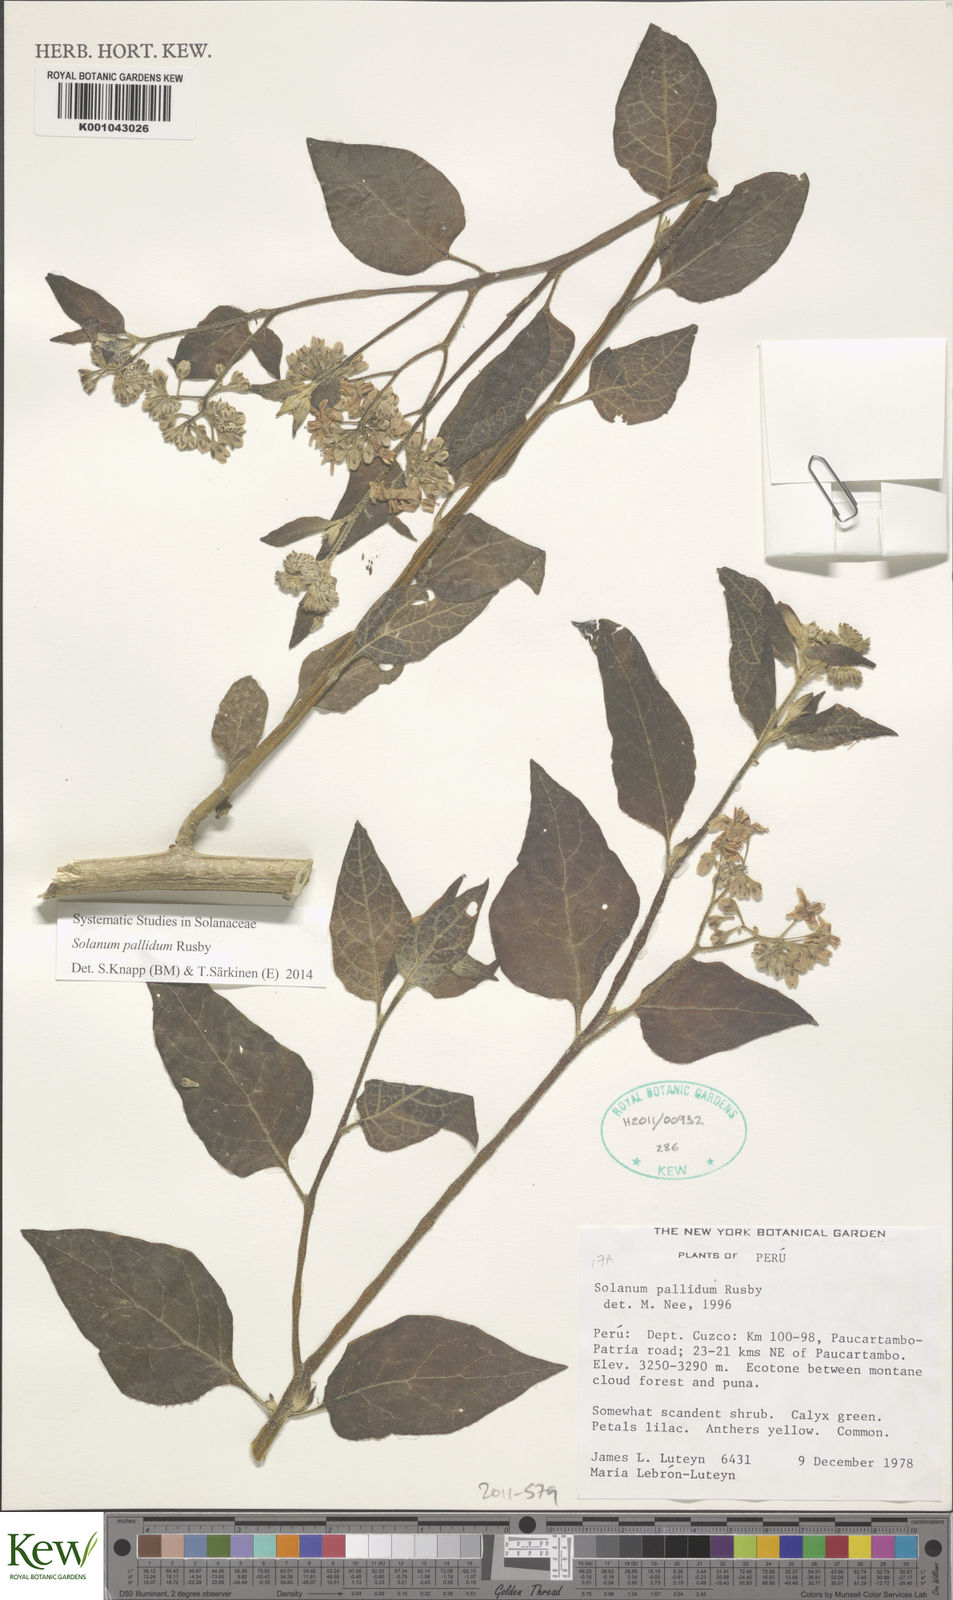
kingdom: Plantae
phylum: Tracheophyta
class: Magnoliopsida
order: Solanales
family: Solanaceae
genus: Solanum
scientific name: Solanum pallidum
